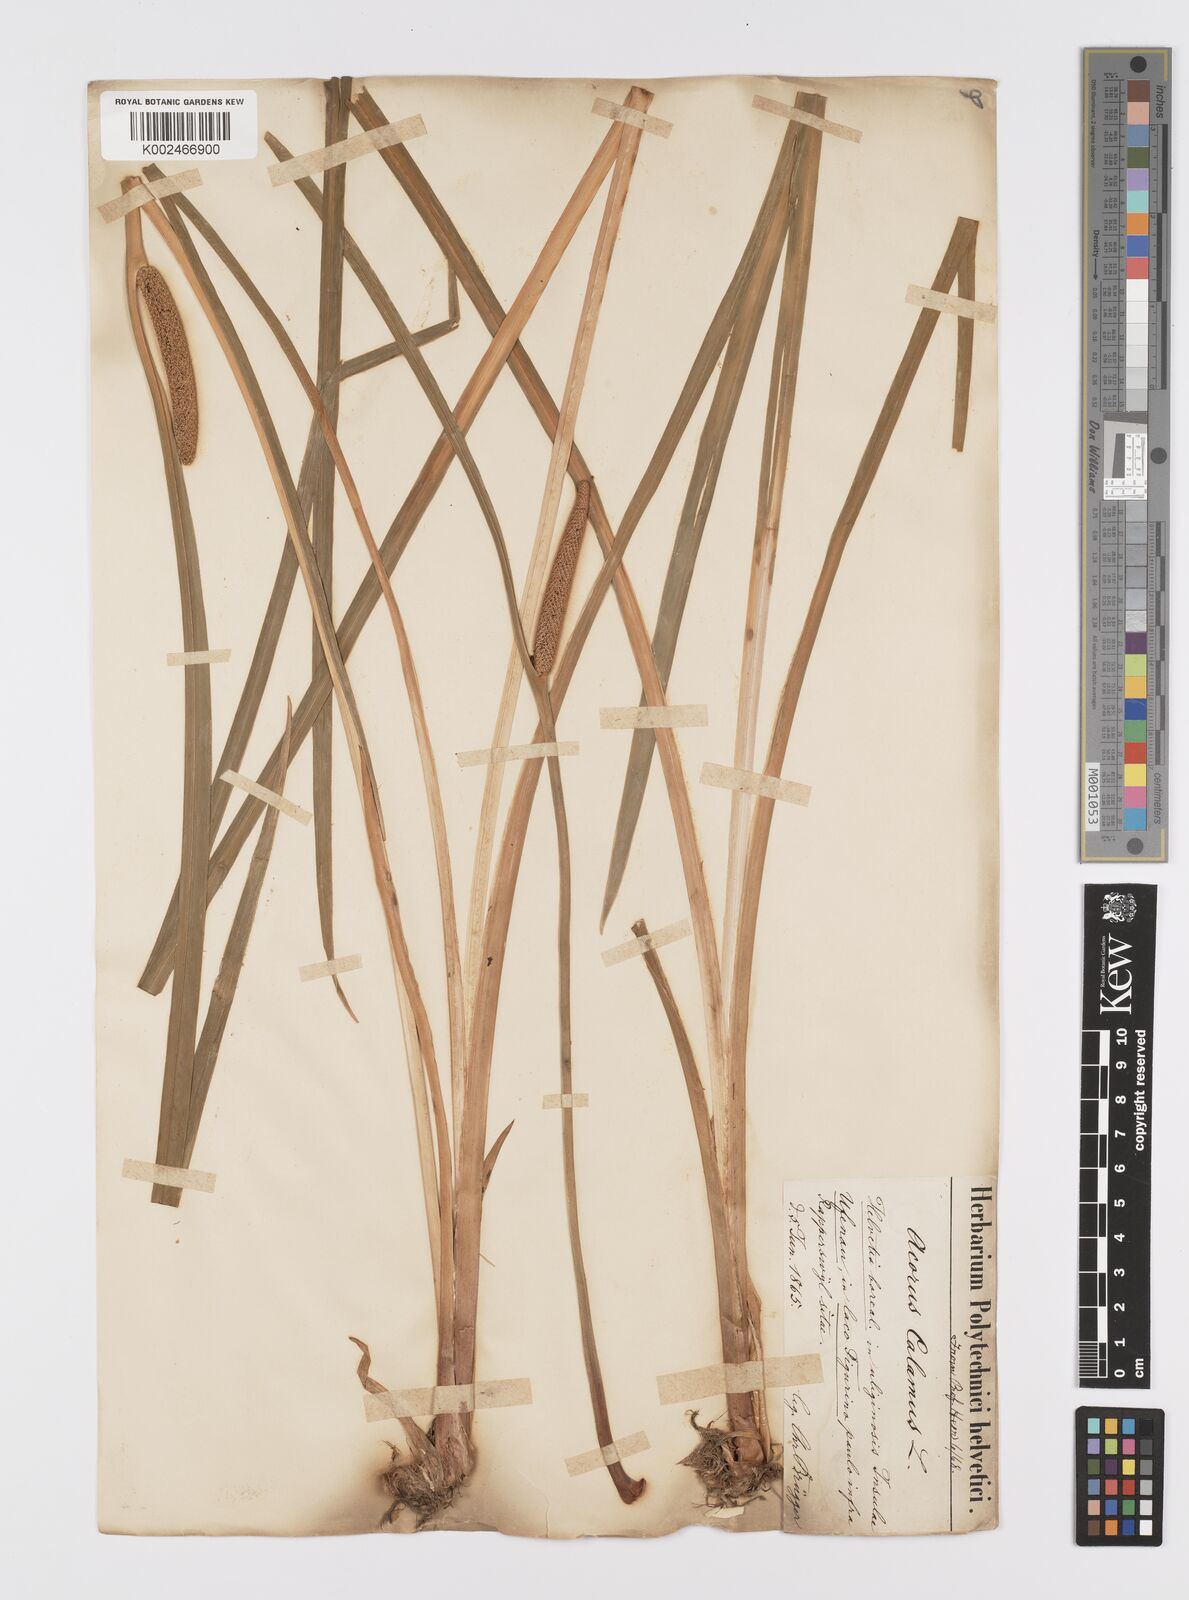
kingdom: Plantae
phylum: Tracheophyta
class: Liliopsida
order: Acorales
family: Acoraceae
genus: Acorus
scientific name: Acorus calamus
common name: Sweet-flag
